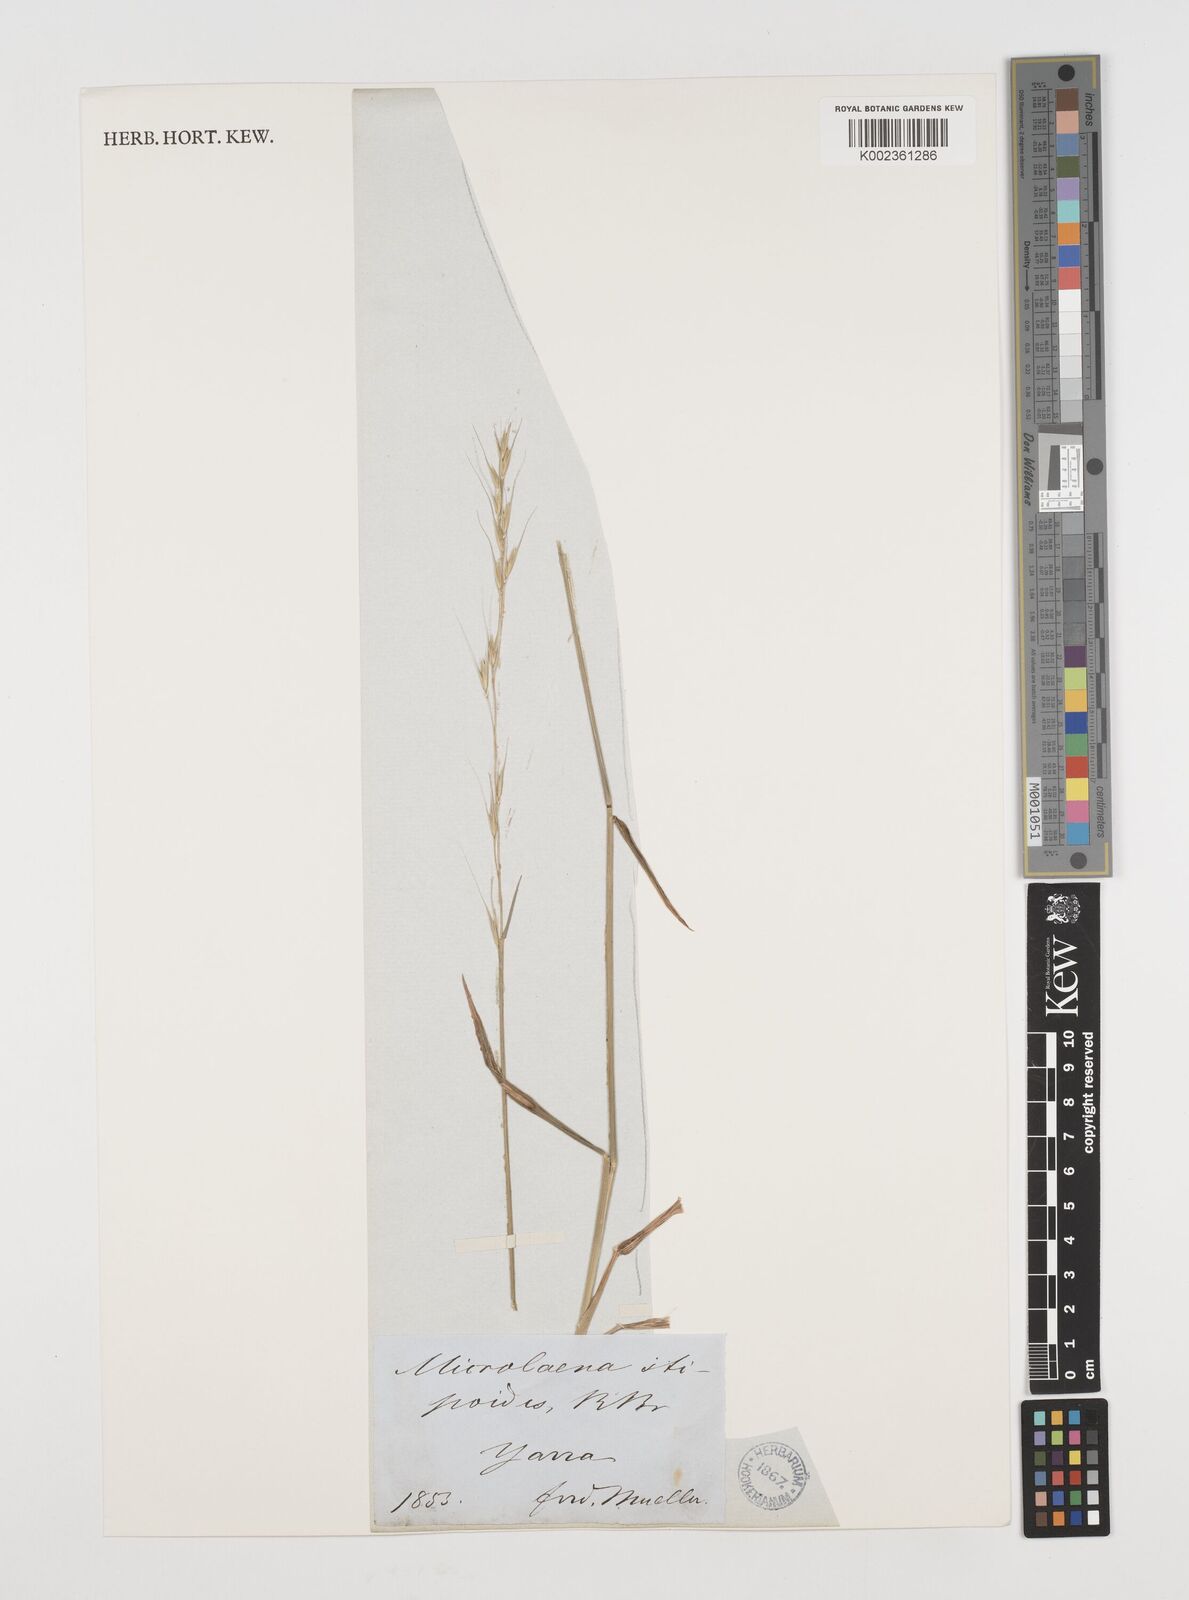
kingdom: Plantae
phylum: Tracheophyta
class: Liliopsida
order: Poales
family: Poaceae
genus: Microlaena
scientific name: Microlaena stipoides
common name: Meadow ricegrass
